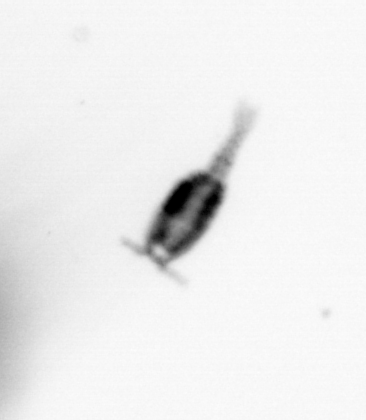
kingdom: Animalia
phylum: Arthropoda
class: Copepoda
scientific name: Copepoda
